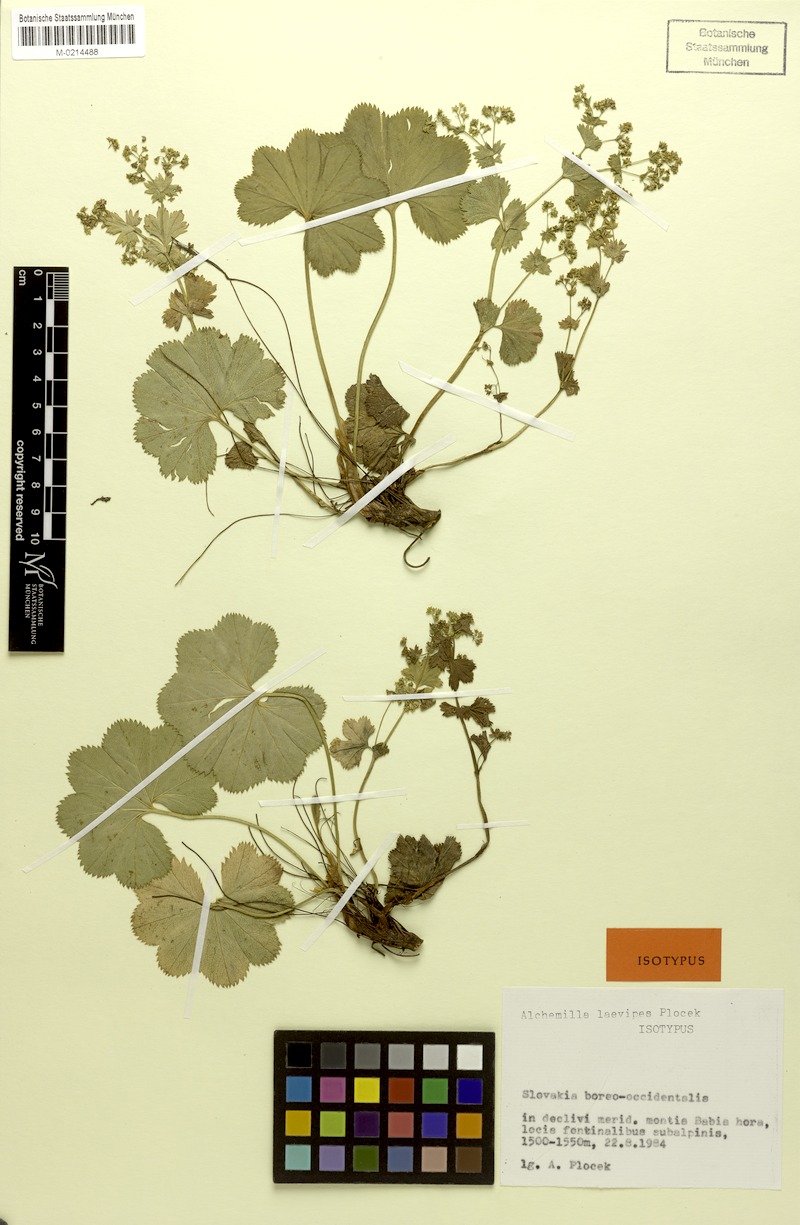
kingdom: Plantae
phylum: Tracheophyta
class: Magnoliopsida
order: Rosales
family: Rosaceae
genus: Alchemilla
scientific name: Alchemilla laevipes
